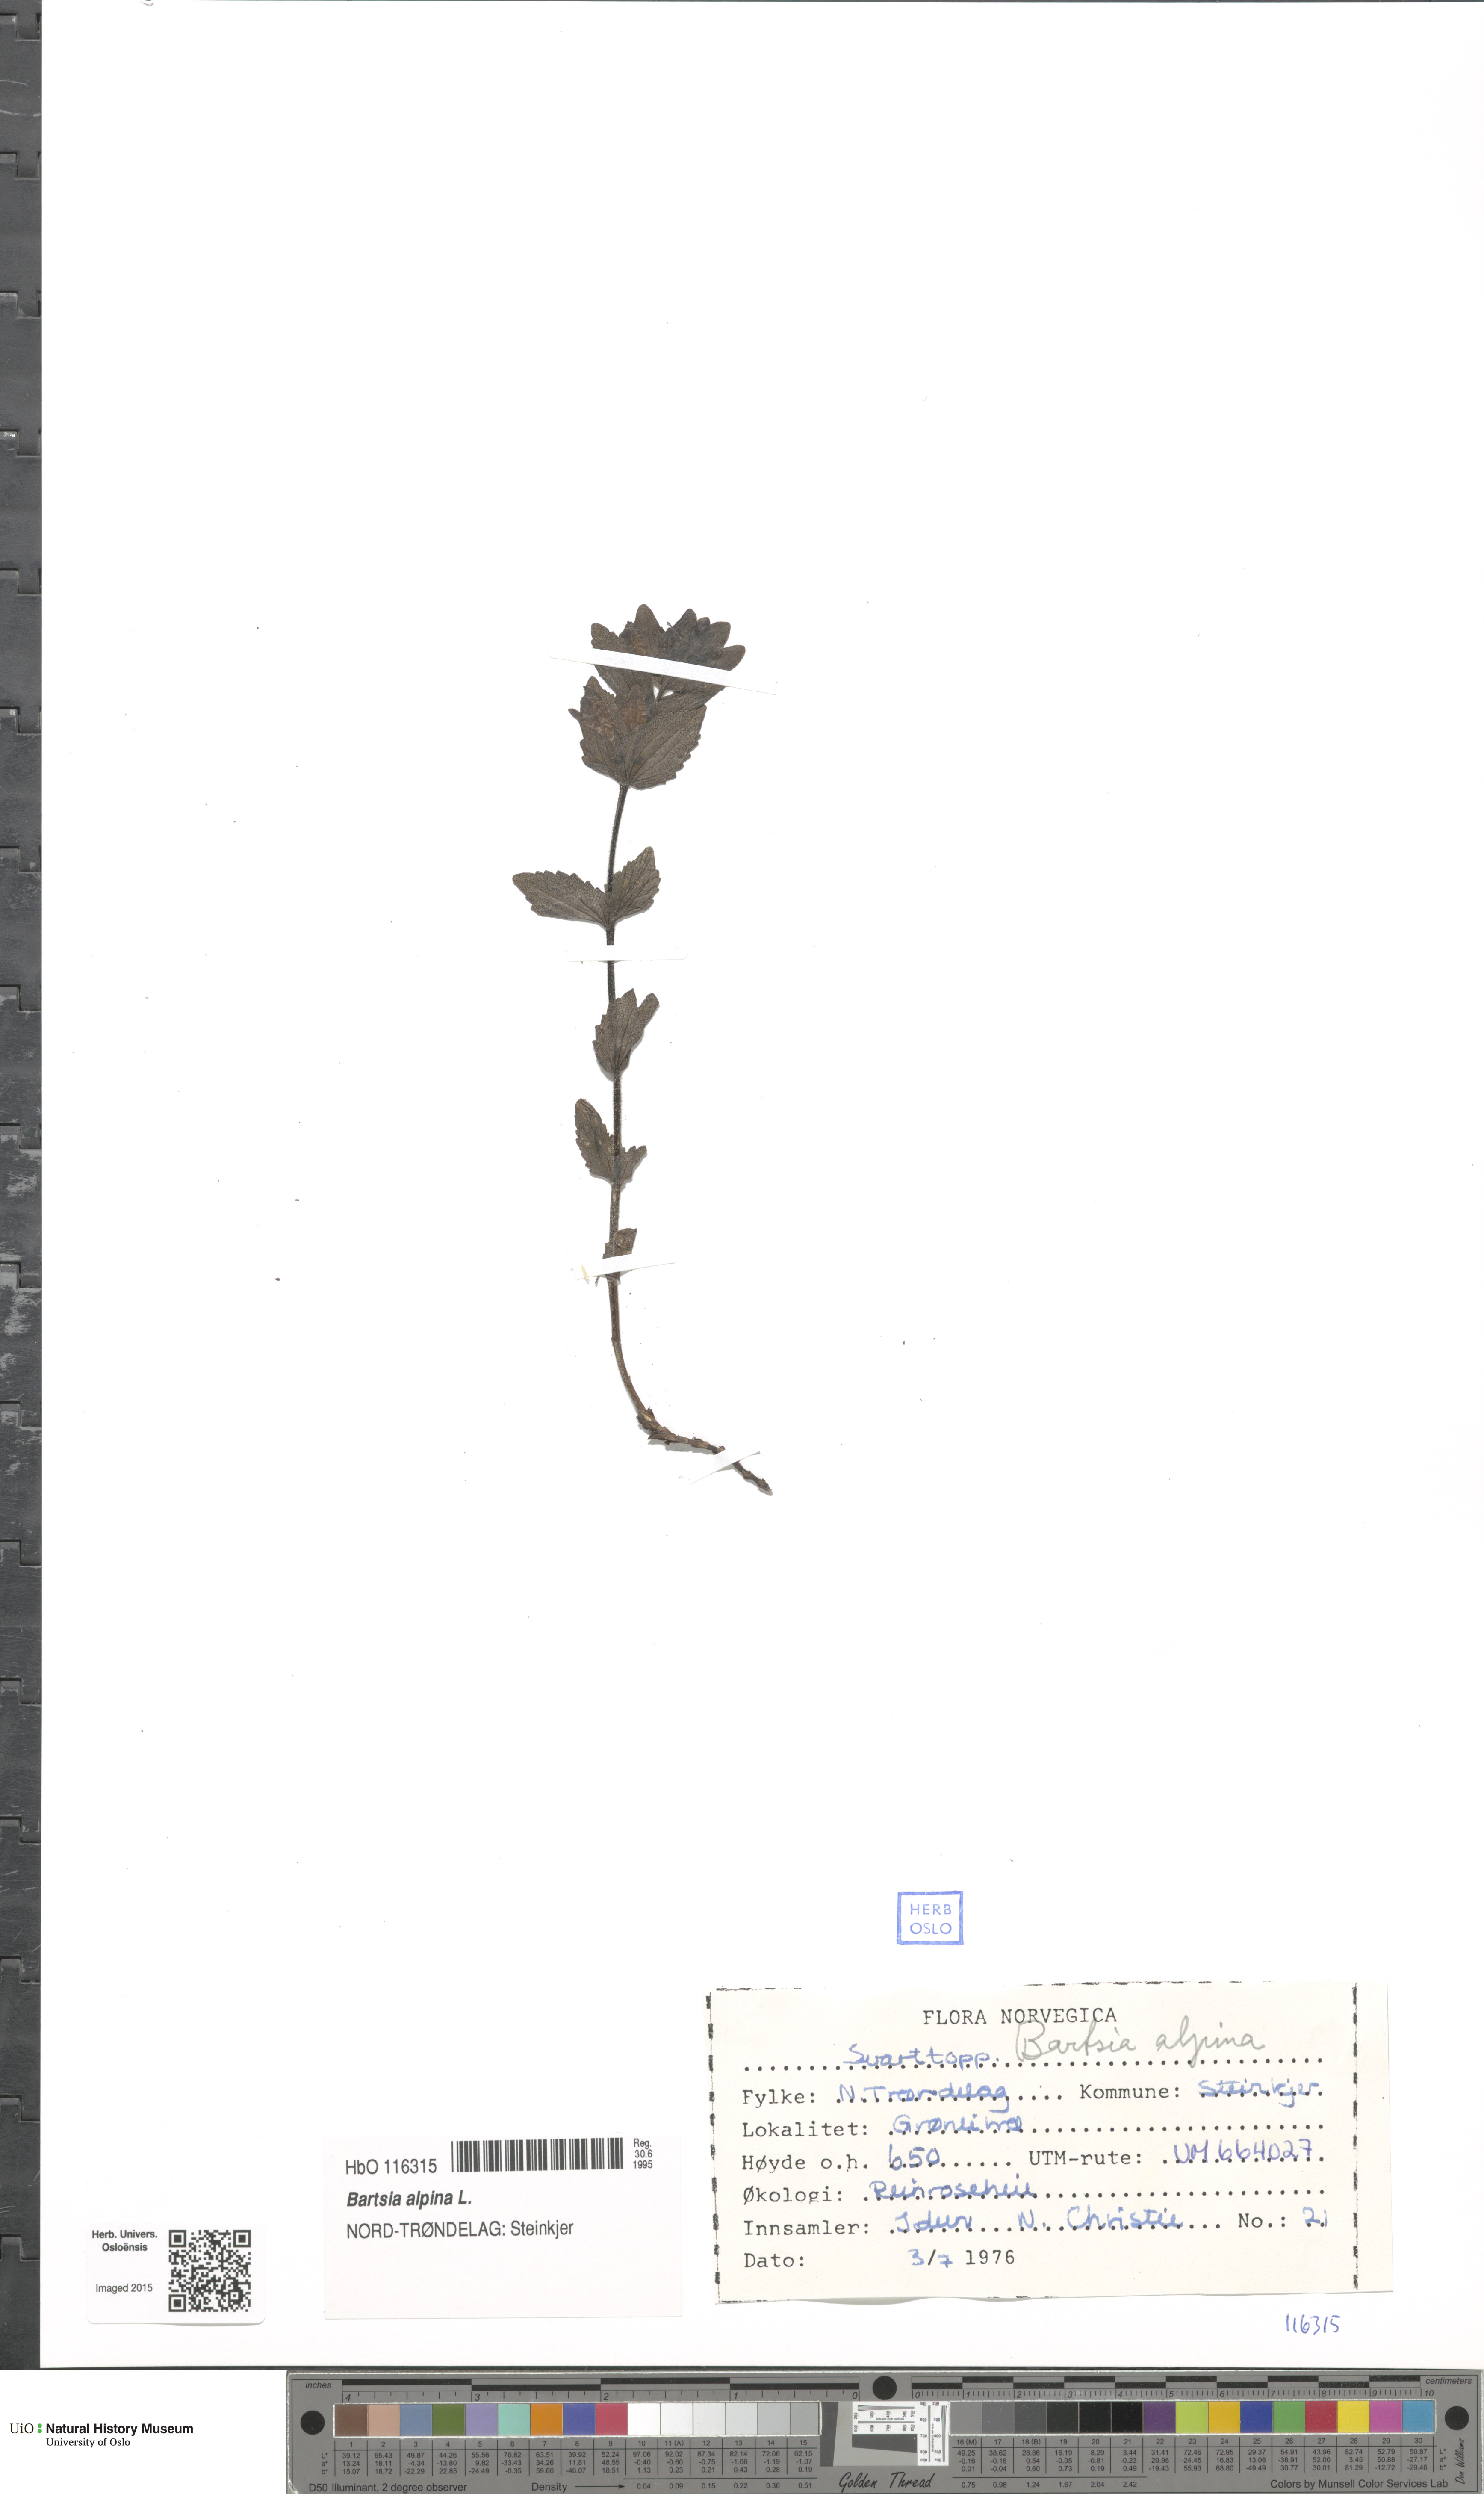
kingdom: Plantae
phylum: Tracheophyta
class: Magnoliopsida
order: Lamiales
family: Orobanchaceae
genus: Bartsia
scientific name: Bartsia alpina
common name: Alpine bartsia
